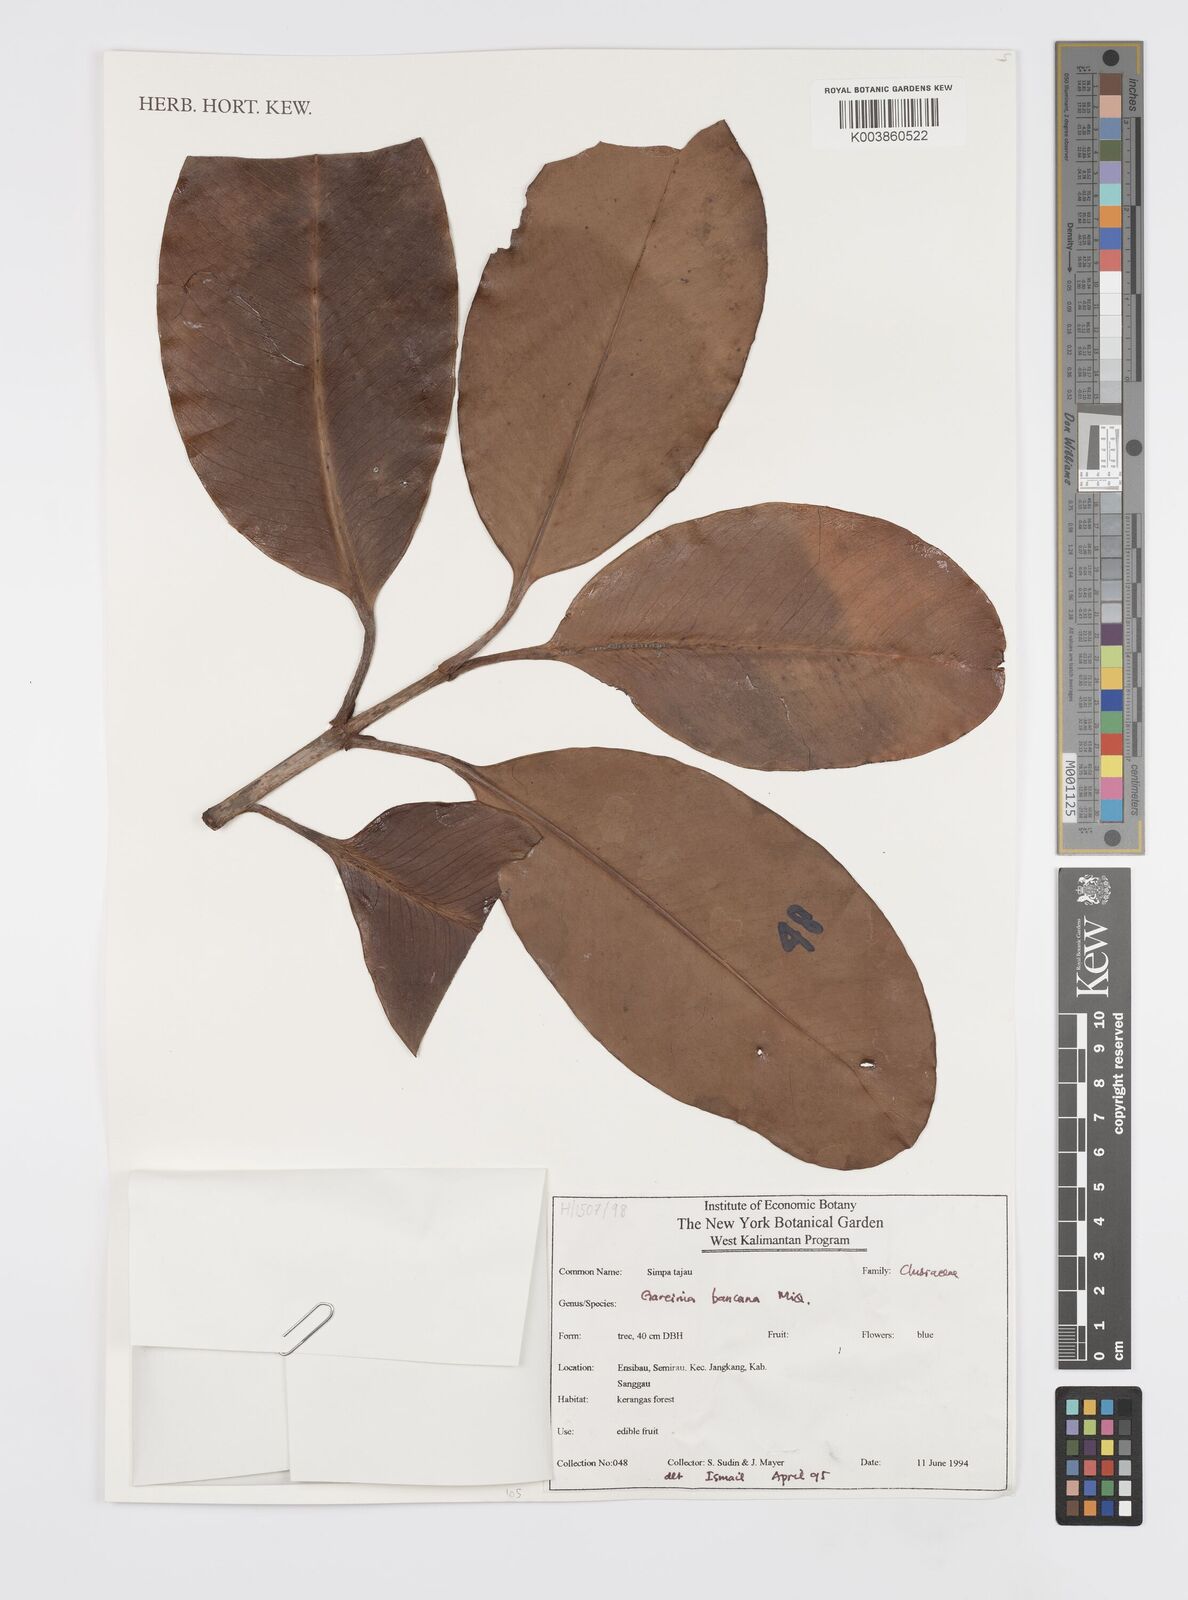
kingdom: Plantae
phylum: Tracheophyta
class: Magnoliopsida
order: Malpighiales
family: Clusiaceae
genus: Garcinia
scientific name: Garcinia bancana
